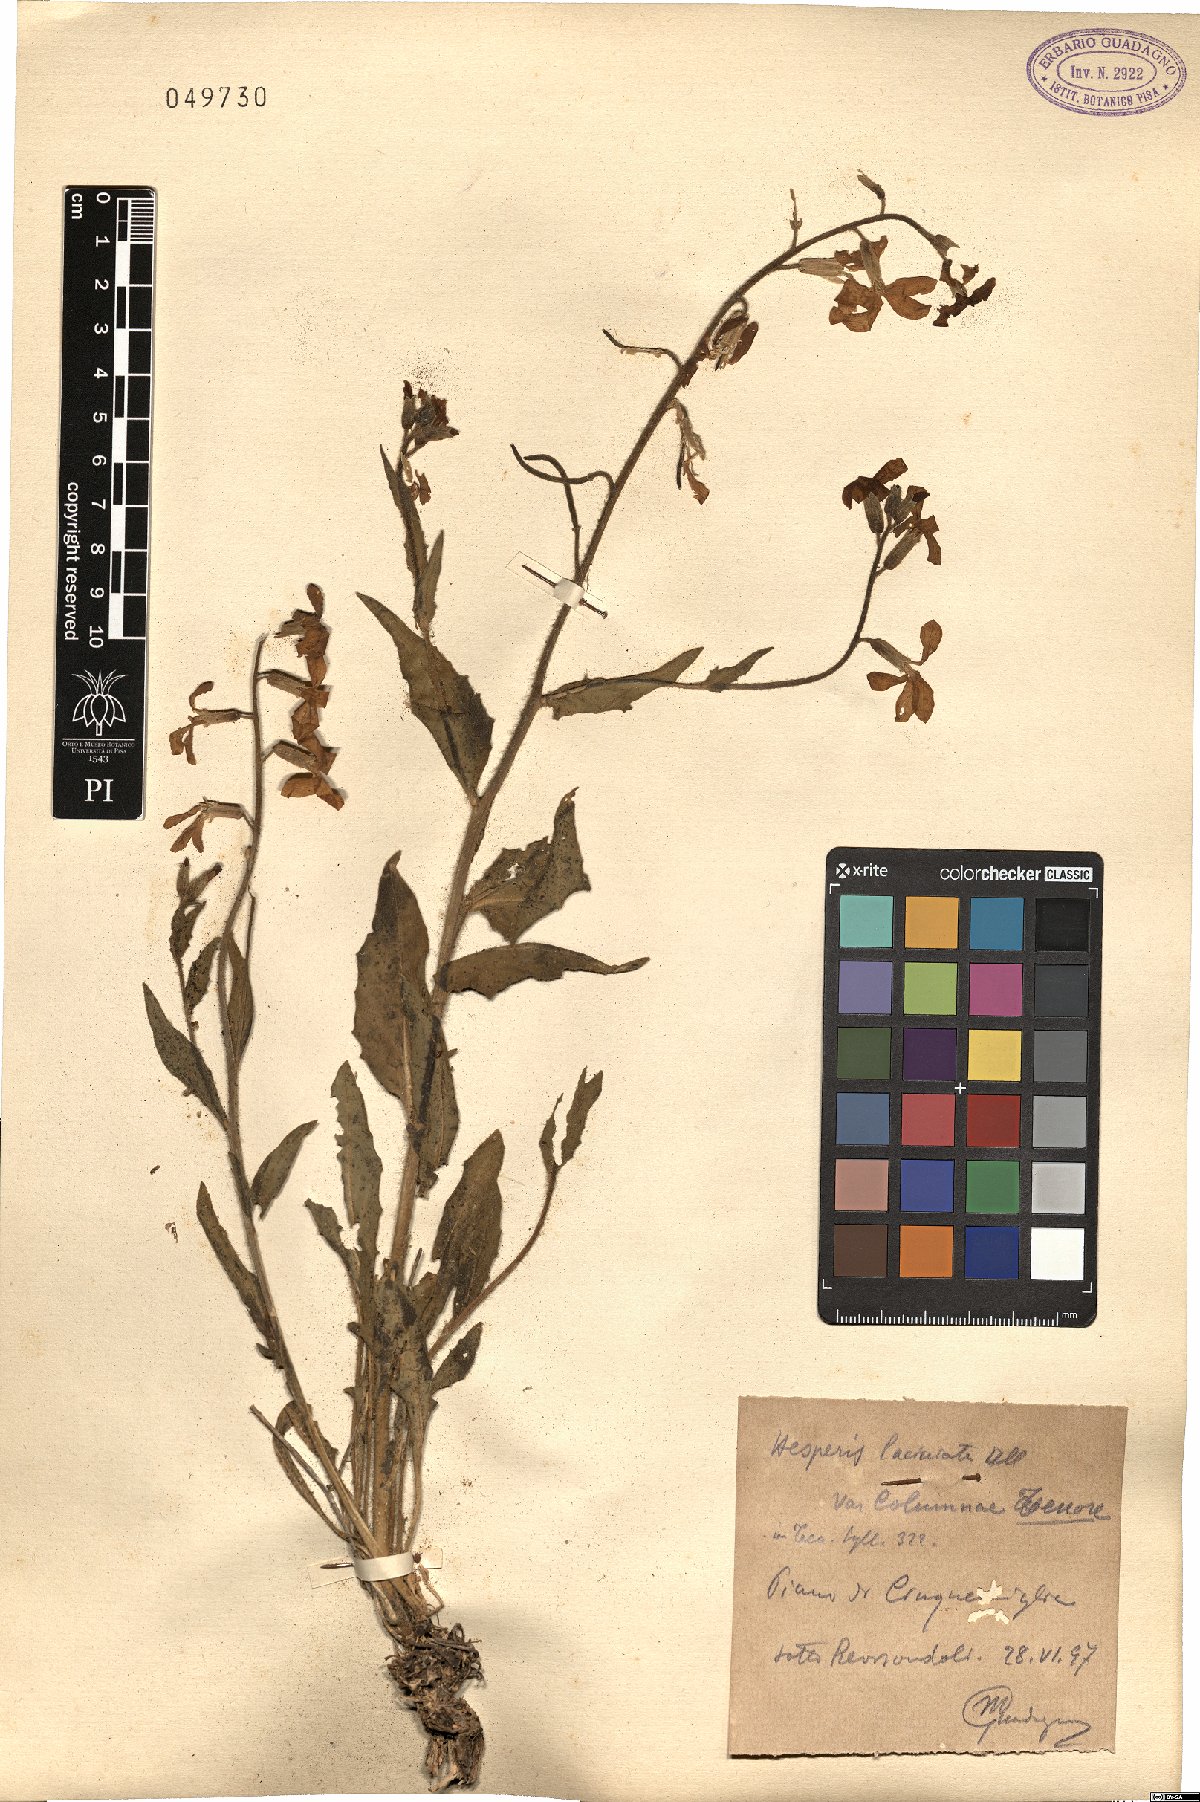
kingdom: Plantae
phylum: Tracheophyta
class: Magnoliopsida
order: Brassicales
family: Brassicaceae
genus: Hesperis
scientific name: Hesperis laciniata
